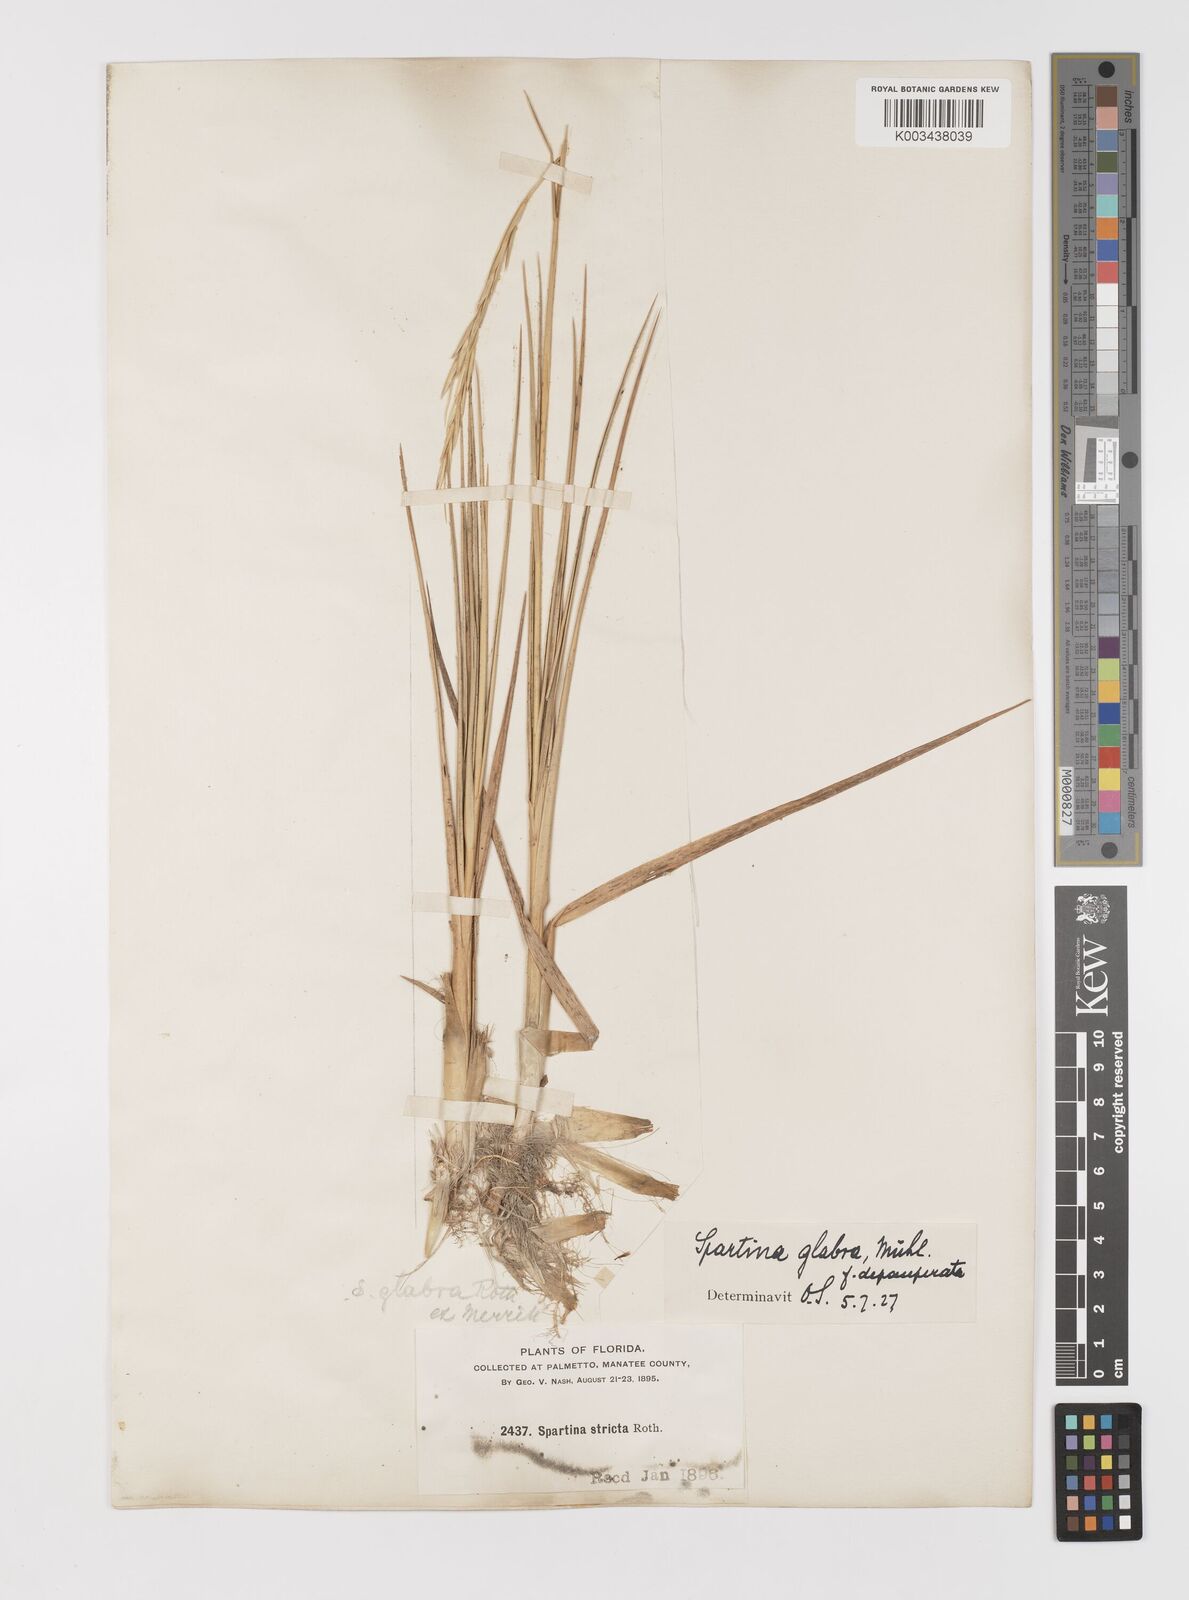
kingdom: Plantae
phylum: Tracheophyta
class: Liliopsida
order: Poales
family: Poaceae
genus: Sporobolus
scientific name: Sporobolus alterniflorus
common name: Atlantic cordgrass
